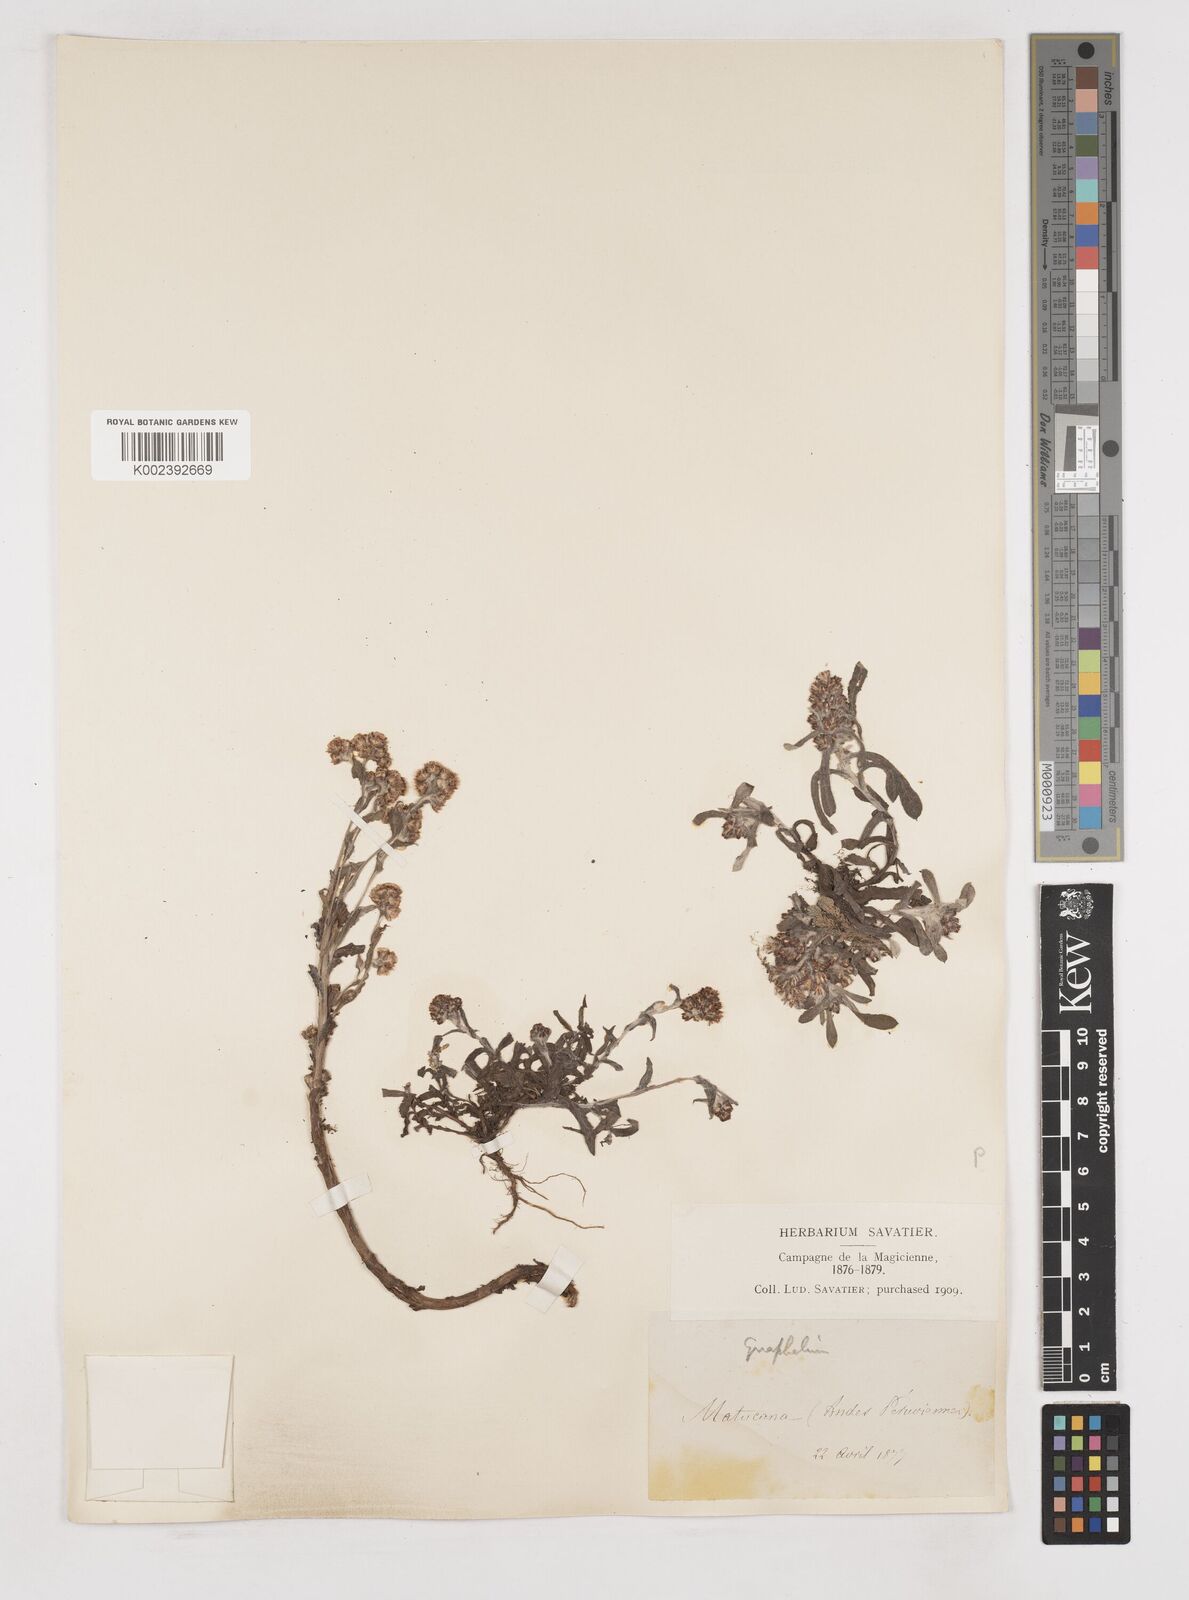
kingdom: Plantae
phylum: Tracheophyta
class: Magnoliopsida
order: Asterales
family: Asteraceae
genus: Gnaphalium
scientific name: Gnaphalium
